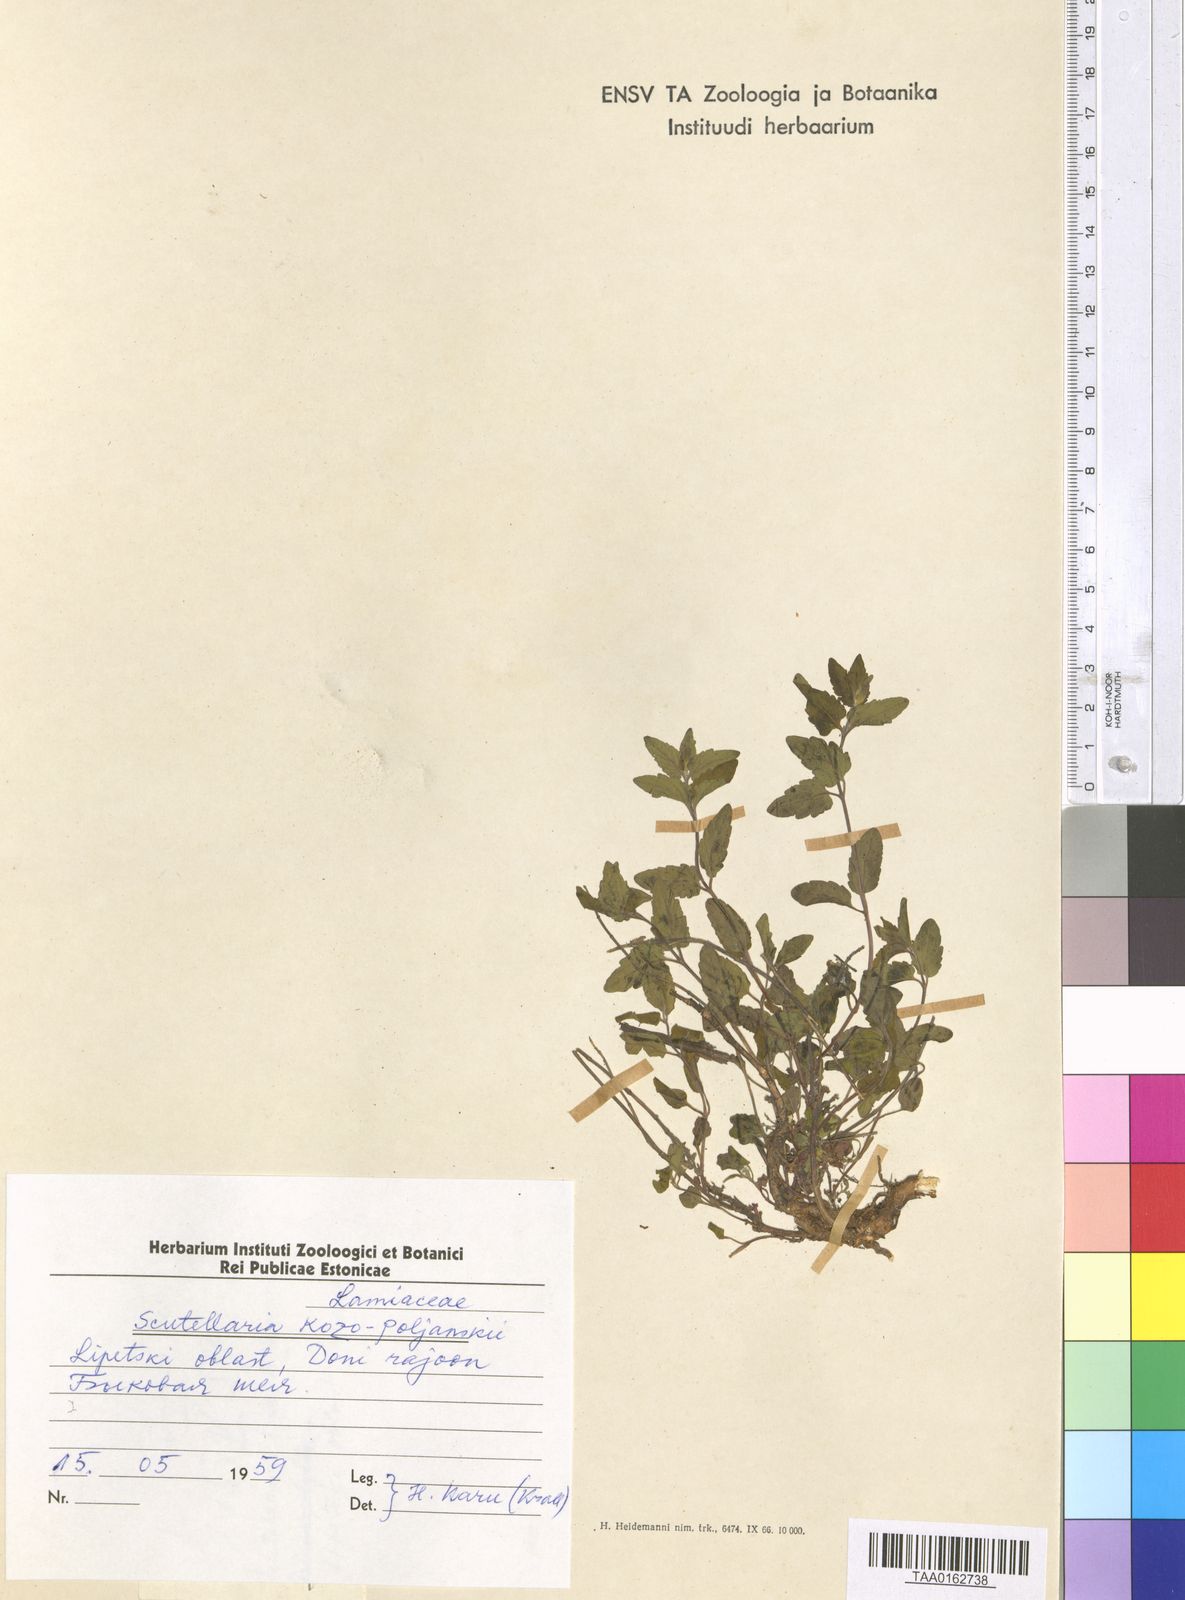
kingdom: Plantae
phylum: Tracheophyta
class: Magnoliopsida
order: Lamiales
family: Lamiaceae
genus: Scutellaria
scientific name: Scutellaria
